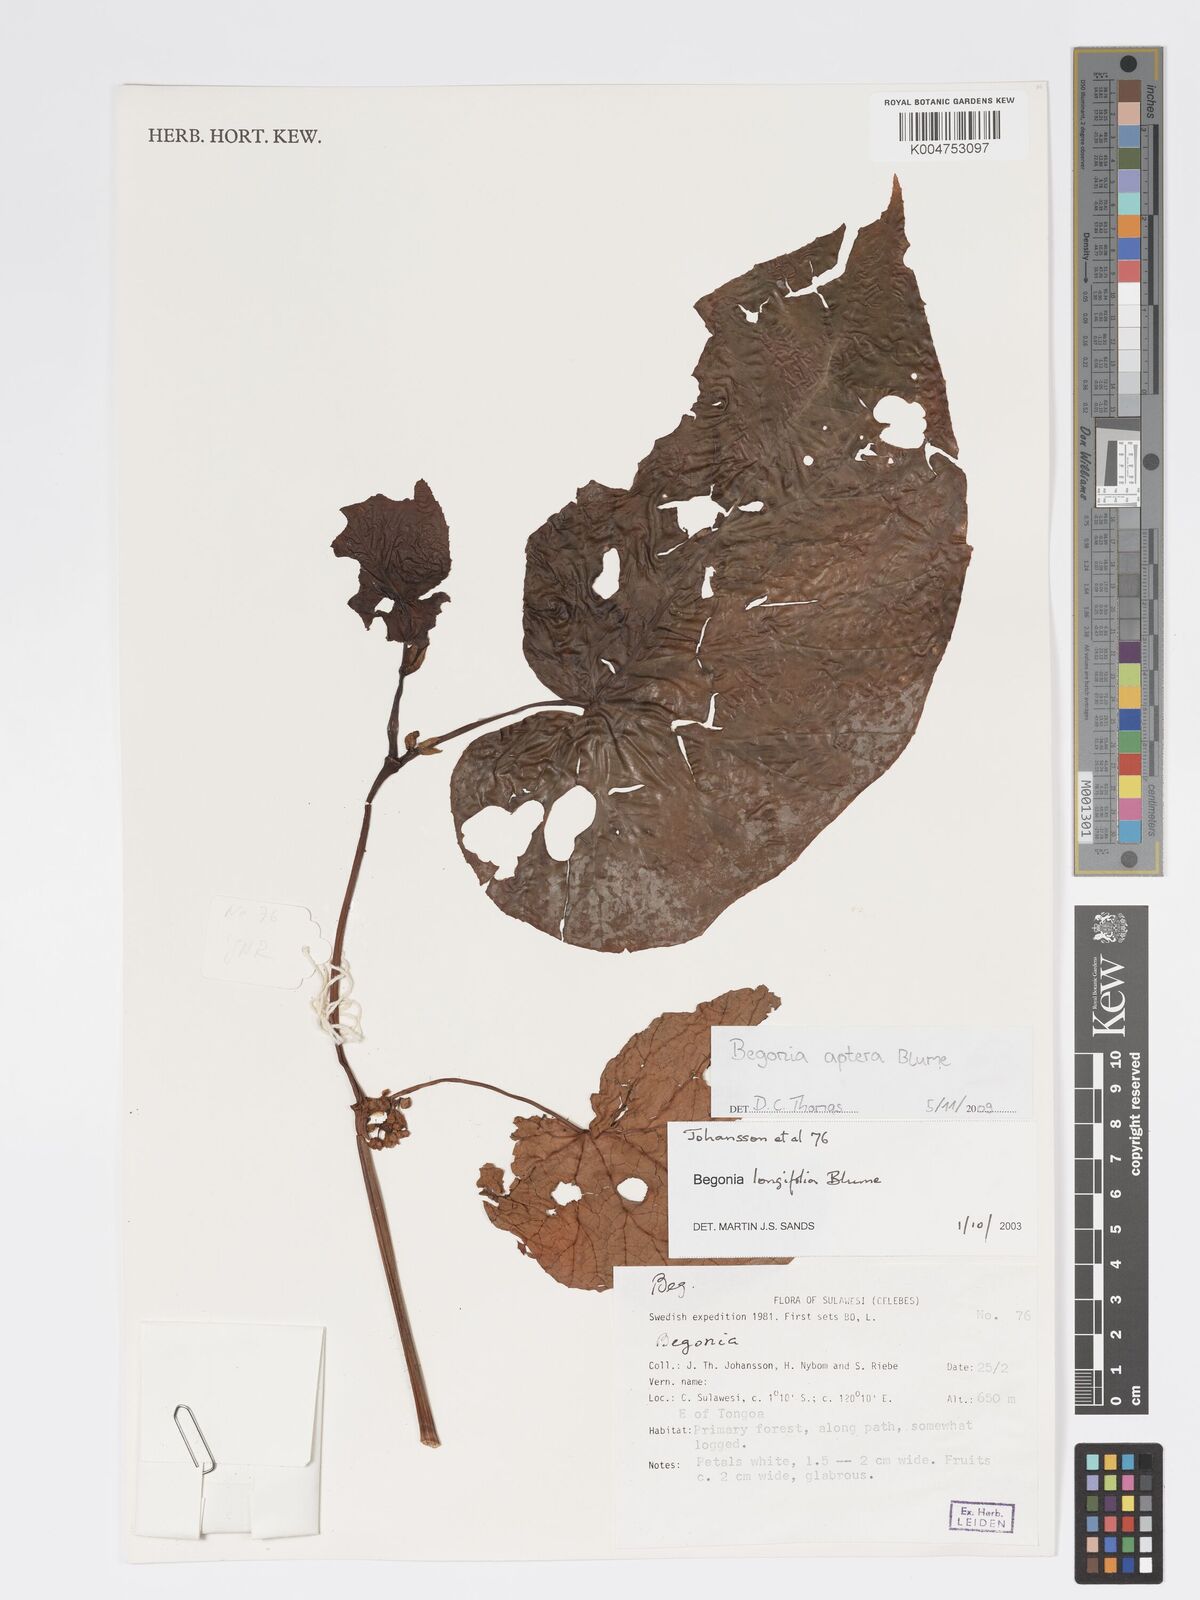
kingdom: Plantae
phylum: Tracheophyta
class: Magnoliopsida
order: Cucurbitales
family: Begoniaceae
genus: Begonia
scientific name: Begonia
